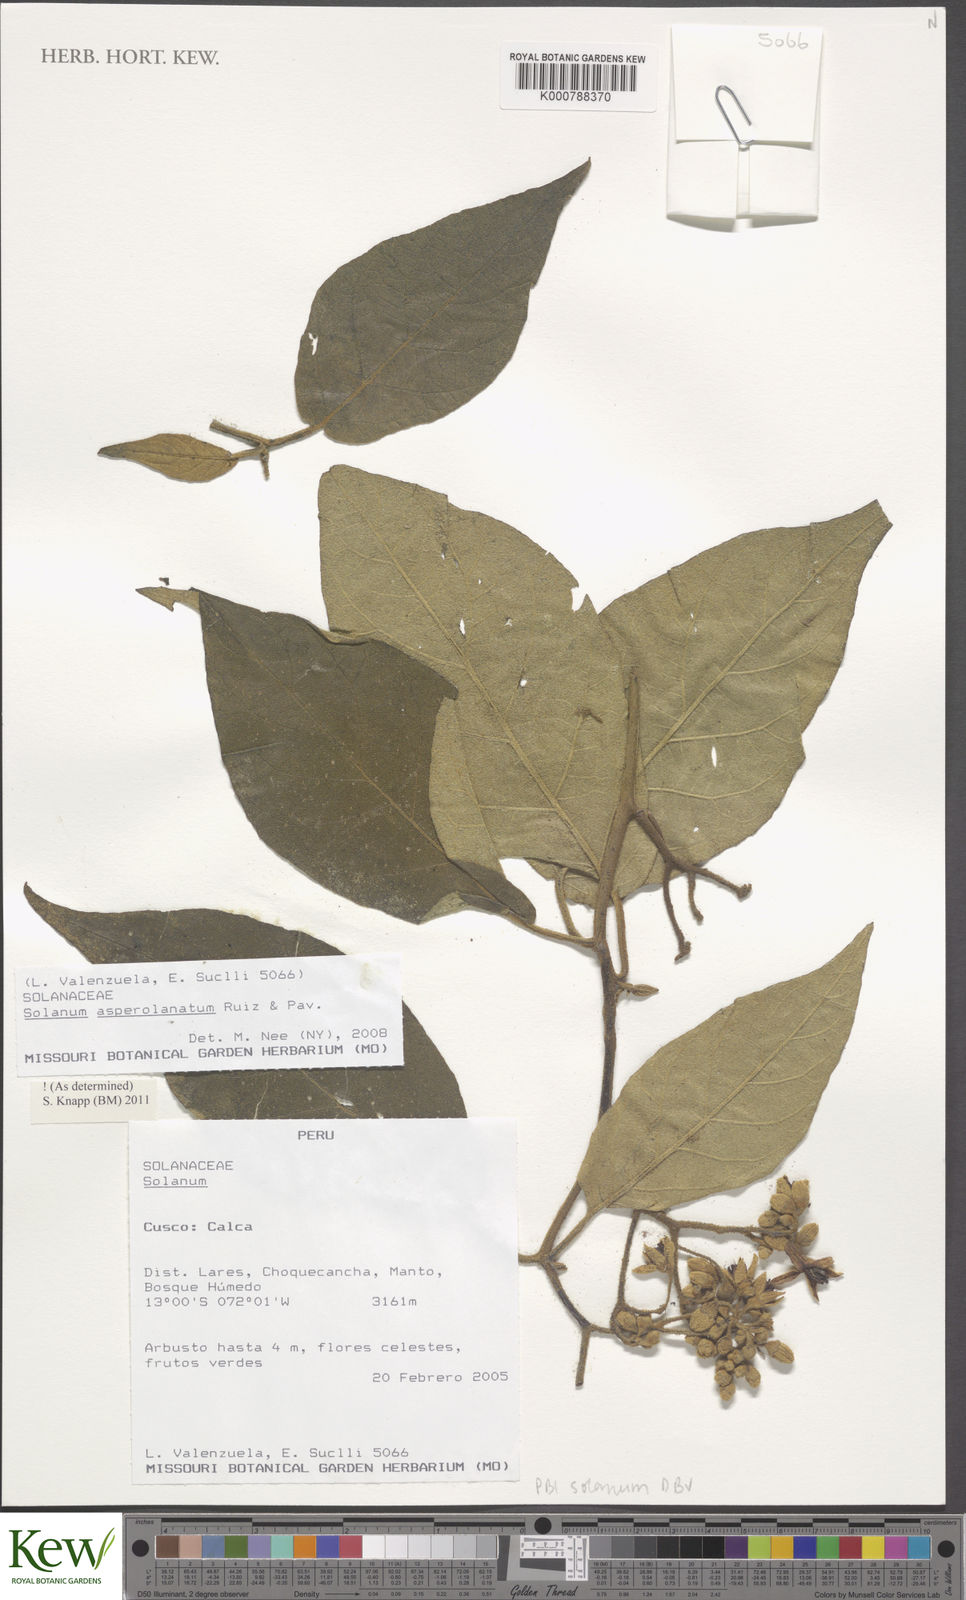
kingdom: Plantae
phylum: Tracheophyta
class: Magnoliopsida
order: Solanales
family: Solanaceae
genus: Solanum
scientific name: Solanum asperolanatum
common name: Devil's-fig
